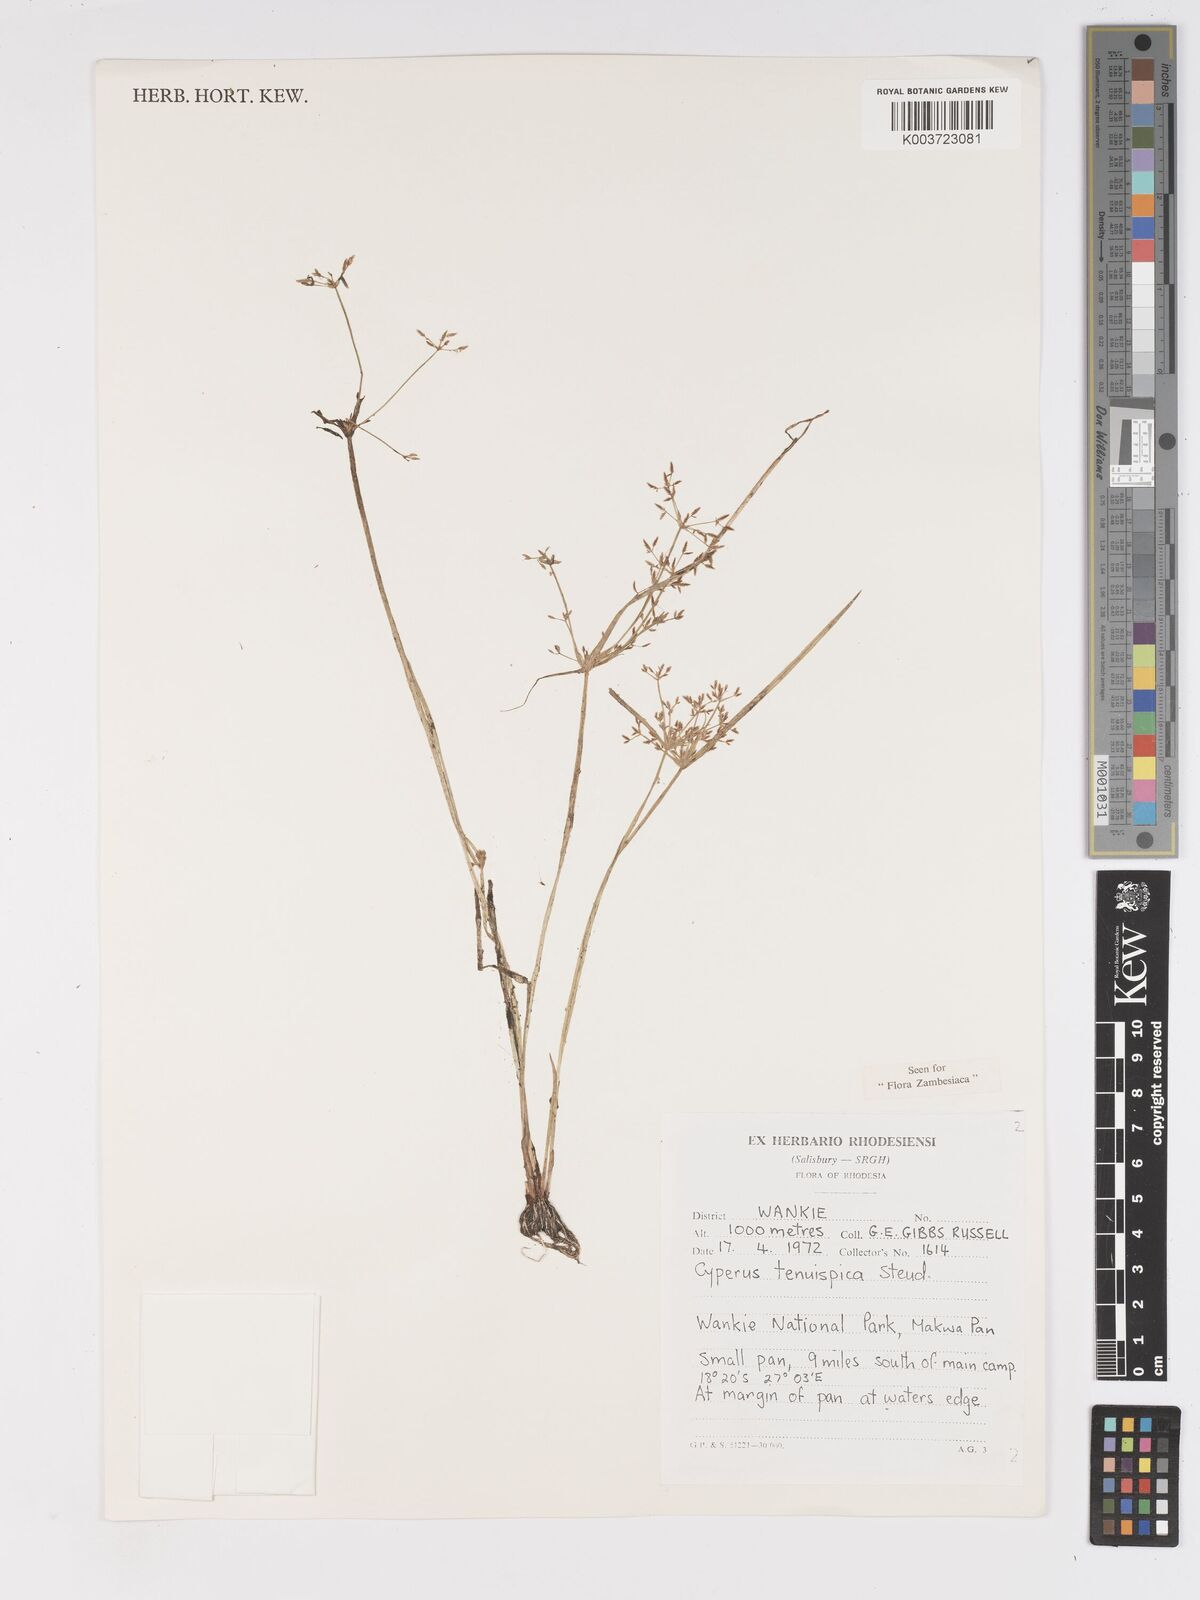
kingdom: Plantae
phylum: Tracheophyta
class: Liliopsida
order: Poales
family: Cyperaceae
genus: Cyperus
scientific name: Cyperus tenuispica
